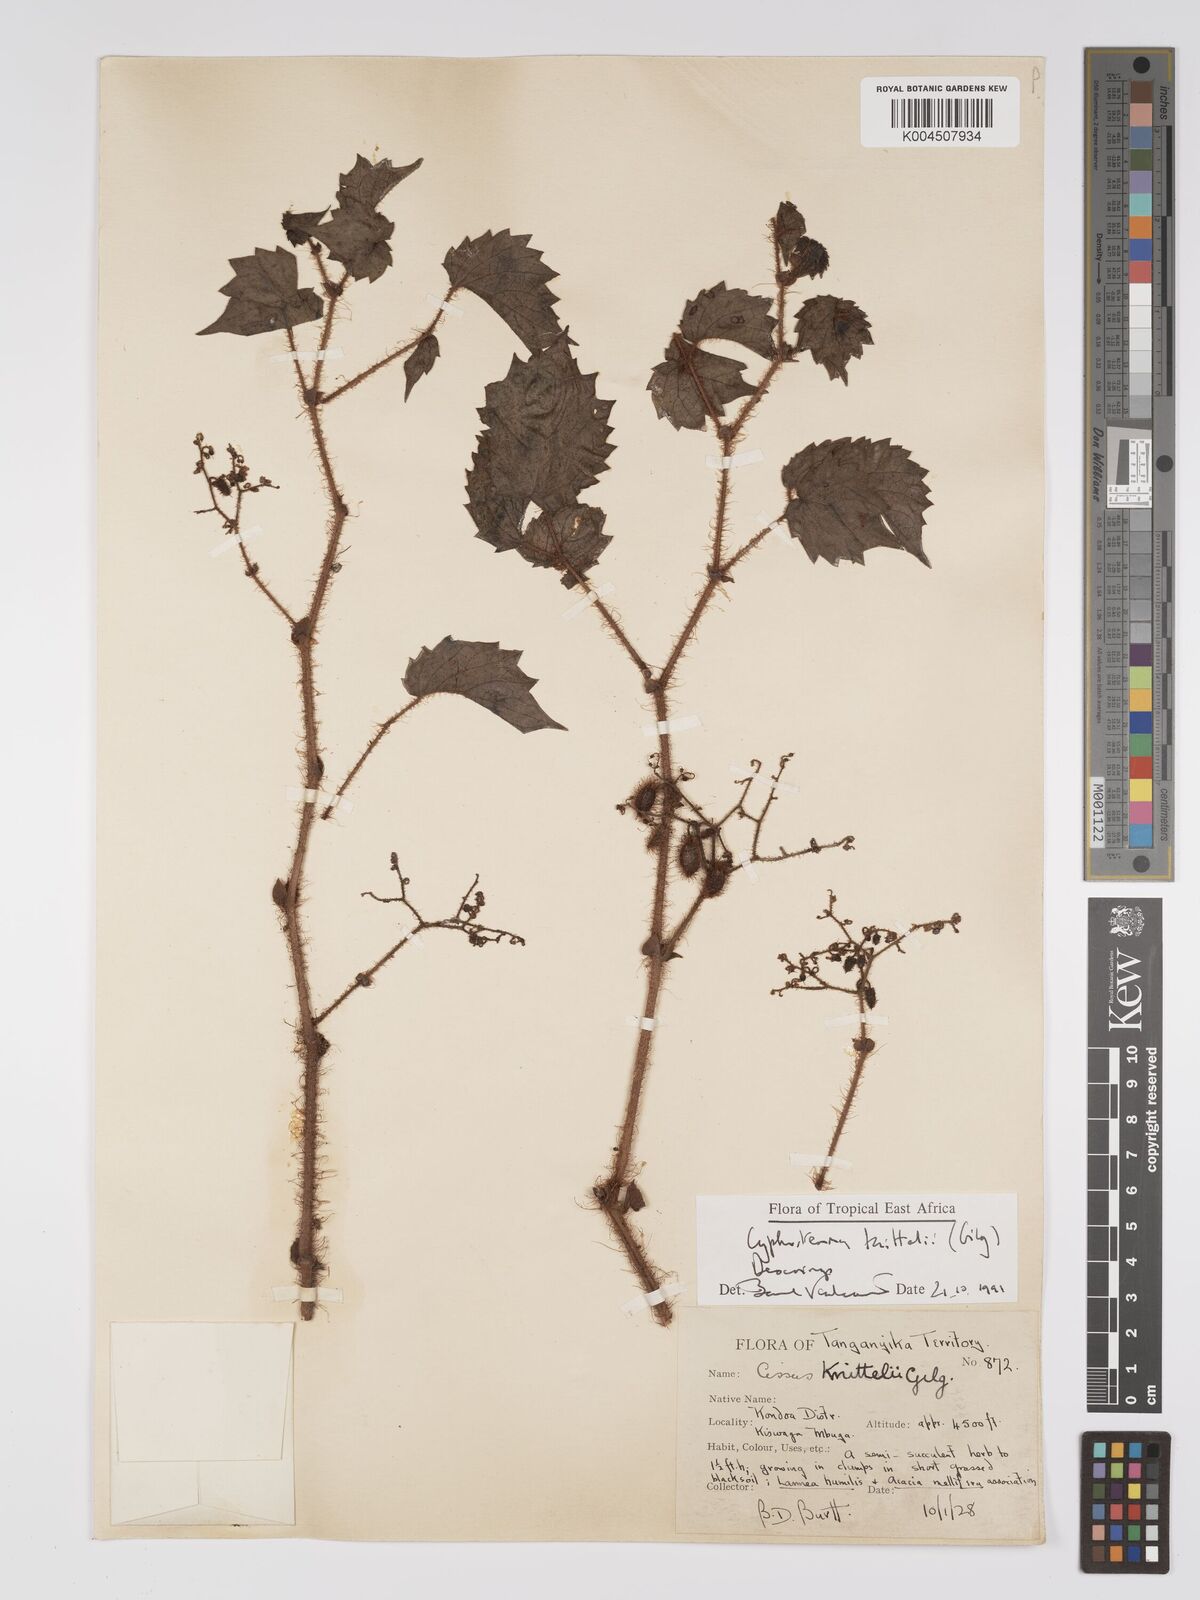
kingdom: Plantae
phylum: Tracheophyta
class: Magnoliopsida
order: Vitales
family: Vitaceae
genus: Cyphostemma
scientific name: Cyphostemma knittelii
